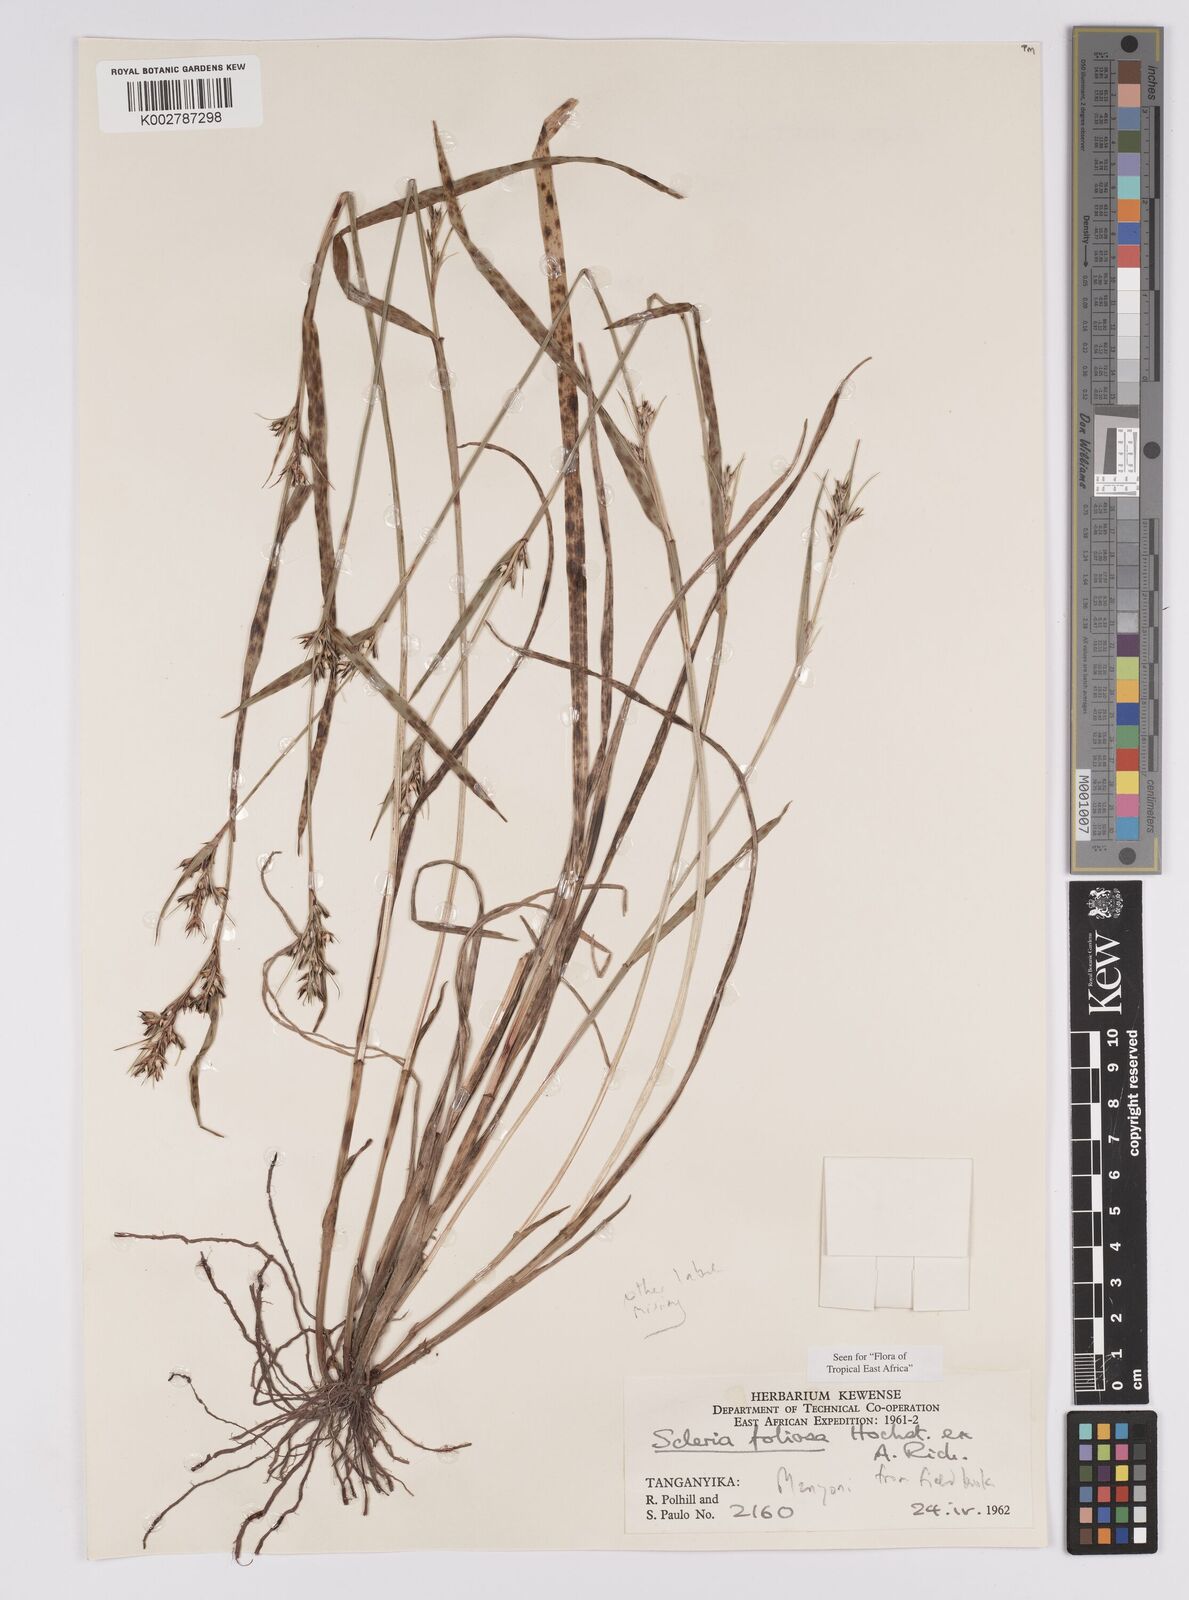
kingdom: Plantae
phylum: Tracheophyta
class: Liliopsida
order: Poales
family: Cyperaceae
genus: Scleria
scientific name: Scleria foliosa
